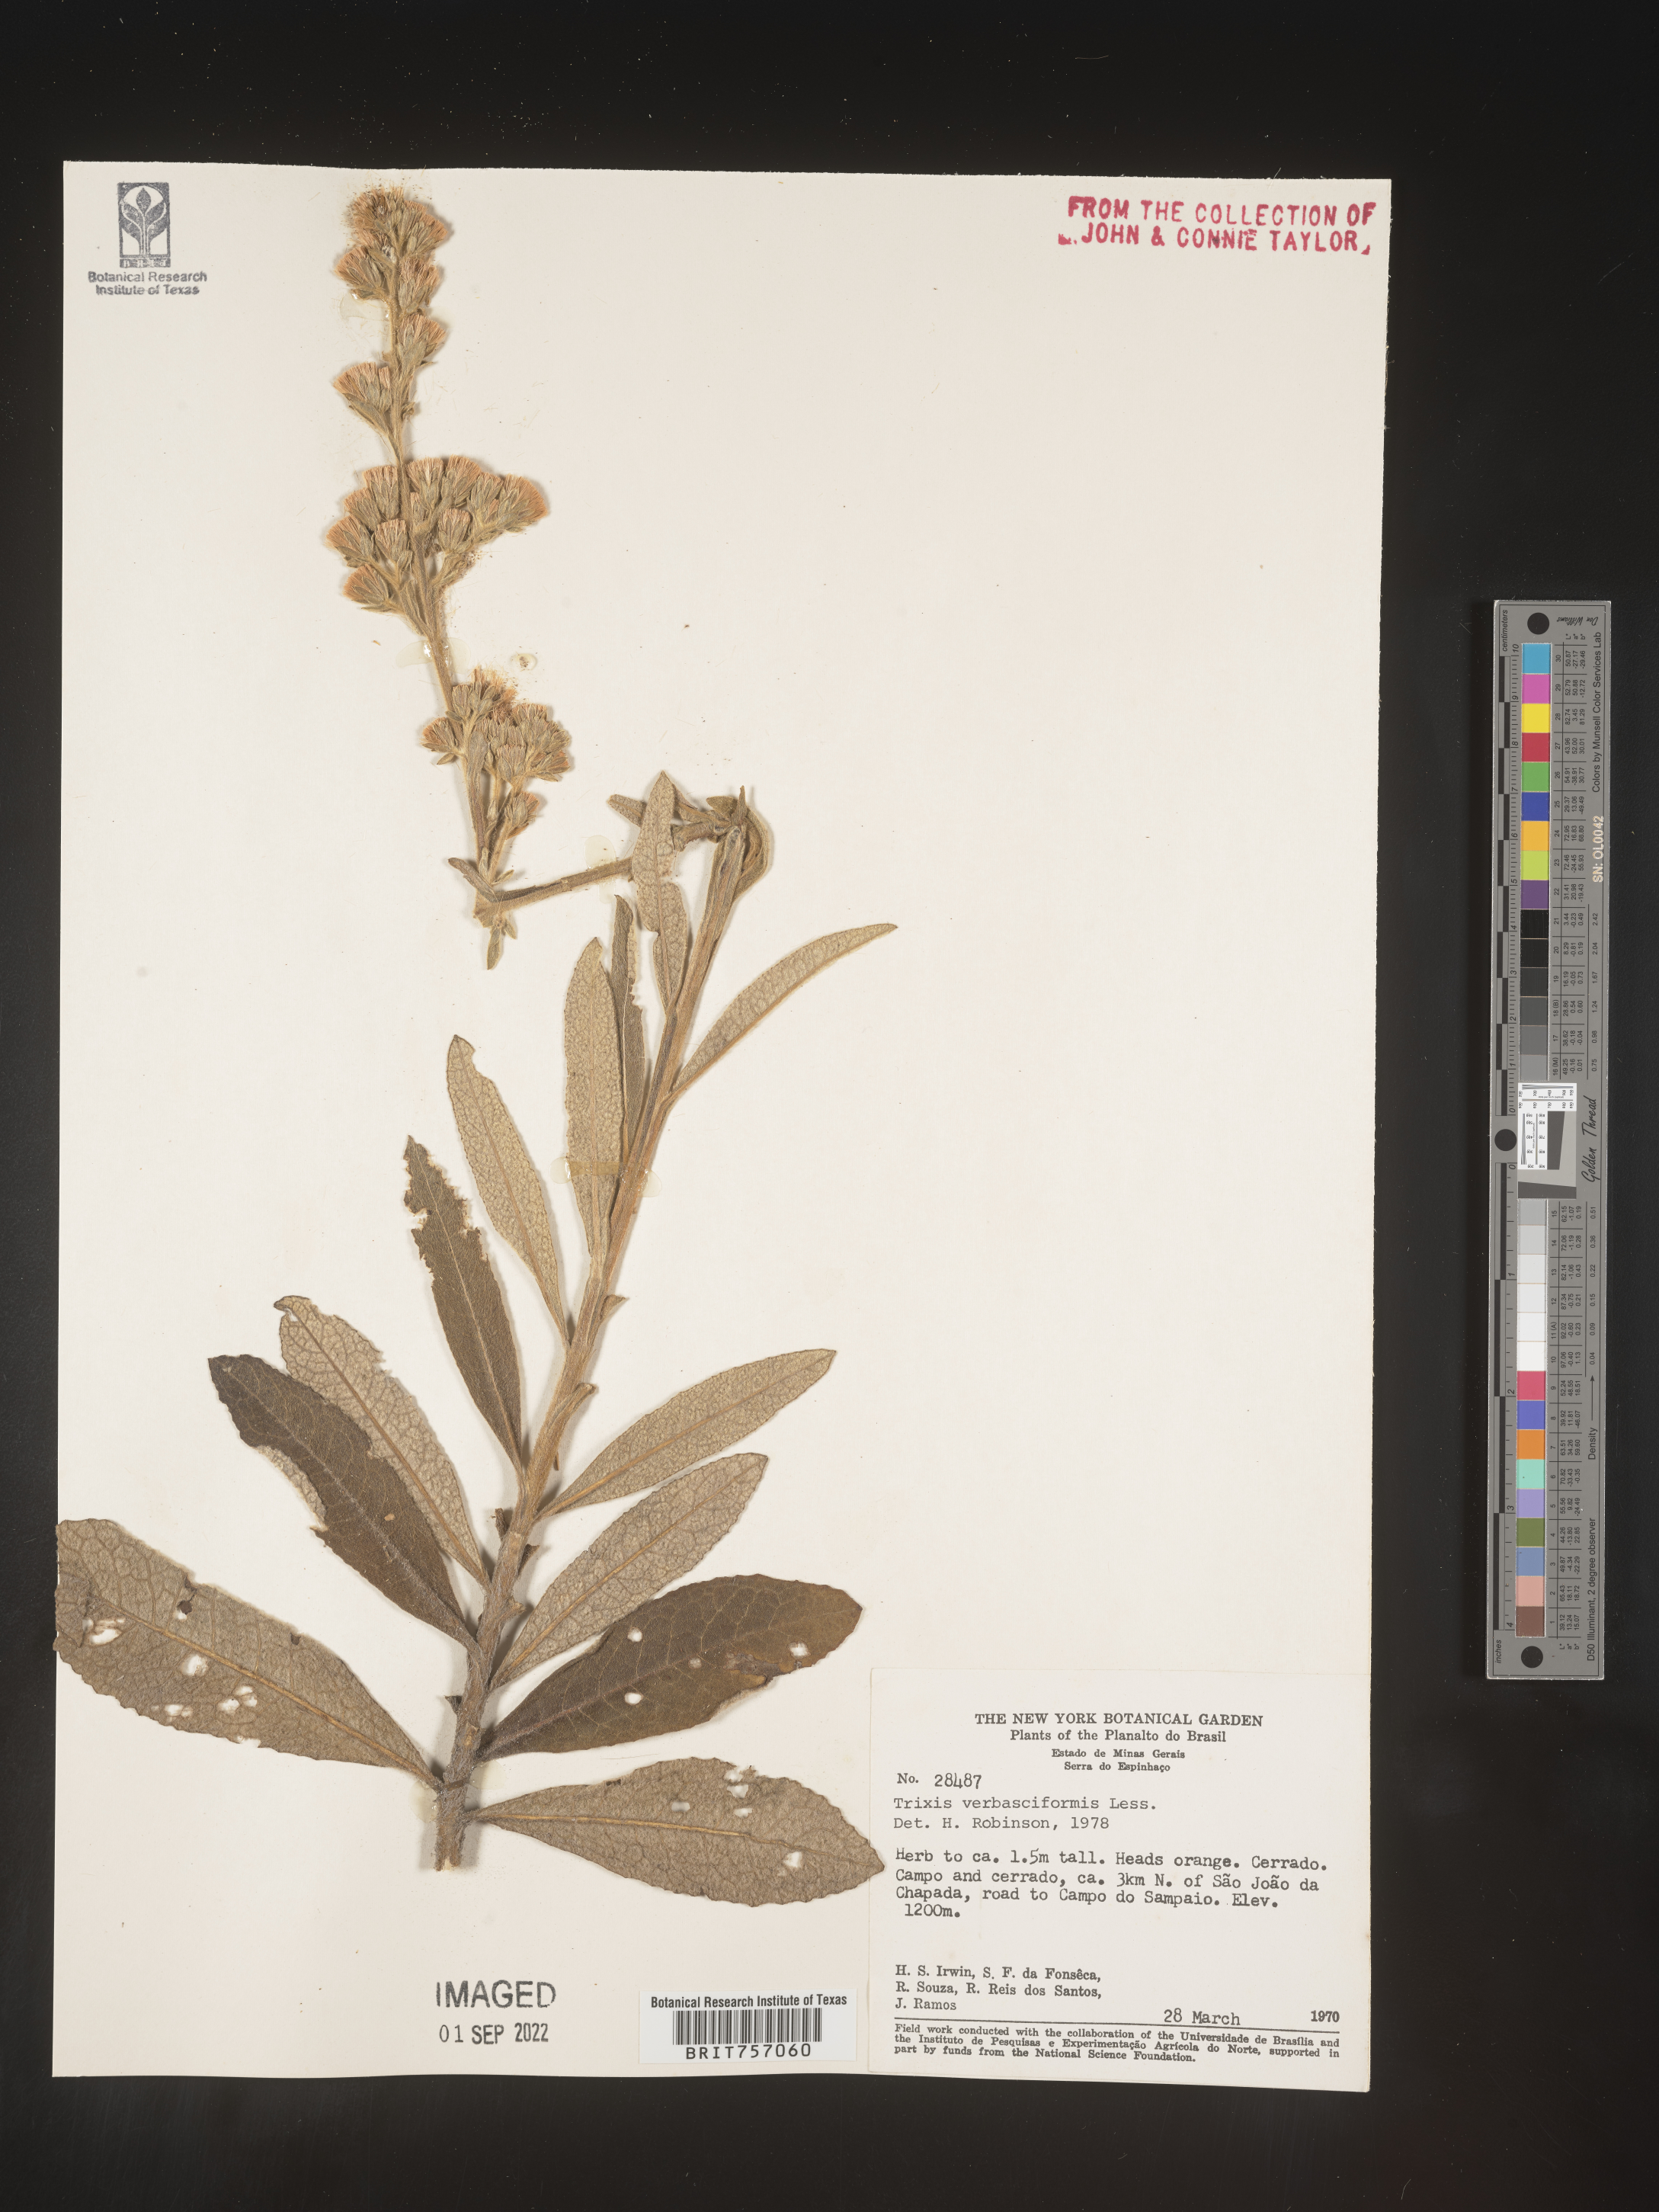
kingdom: Plantae
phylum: Tracheophyta
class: Magnoliopsida
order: Asterales
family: Asteraceae
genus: Trixis
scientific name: Trixis
